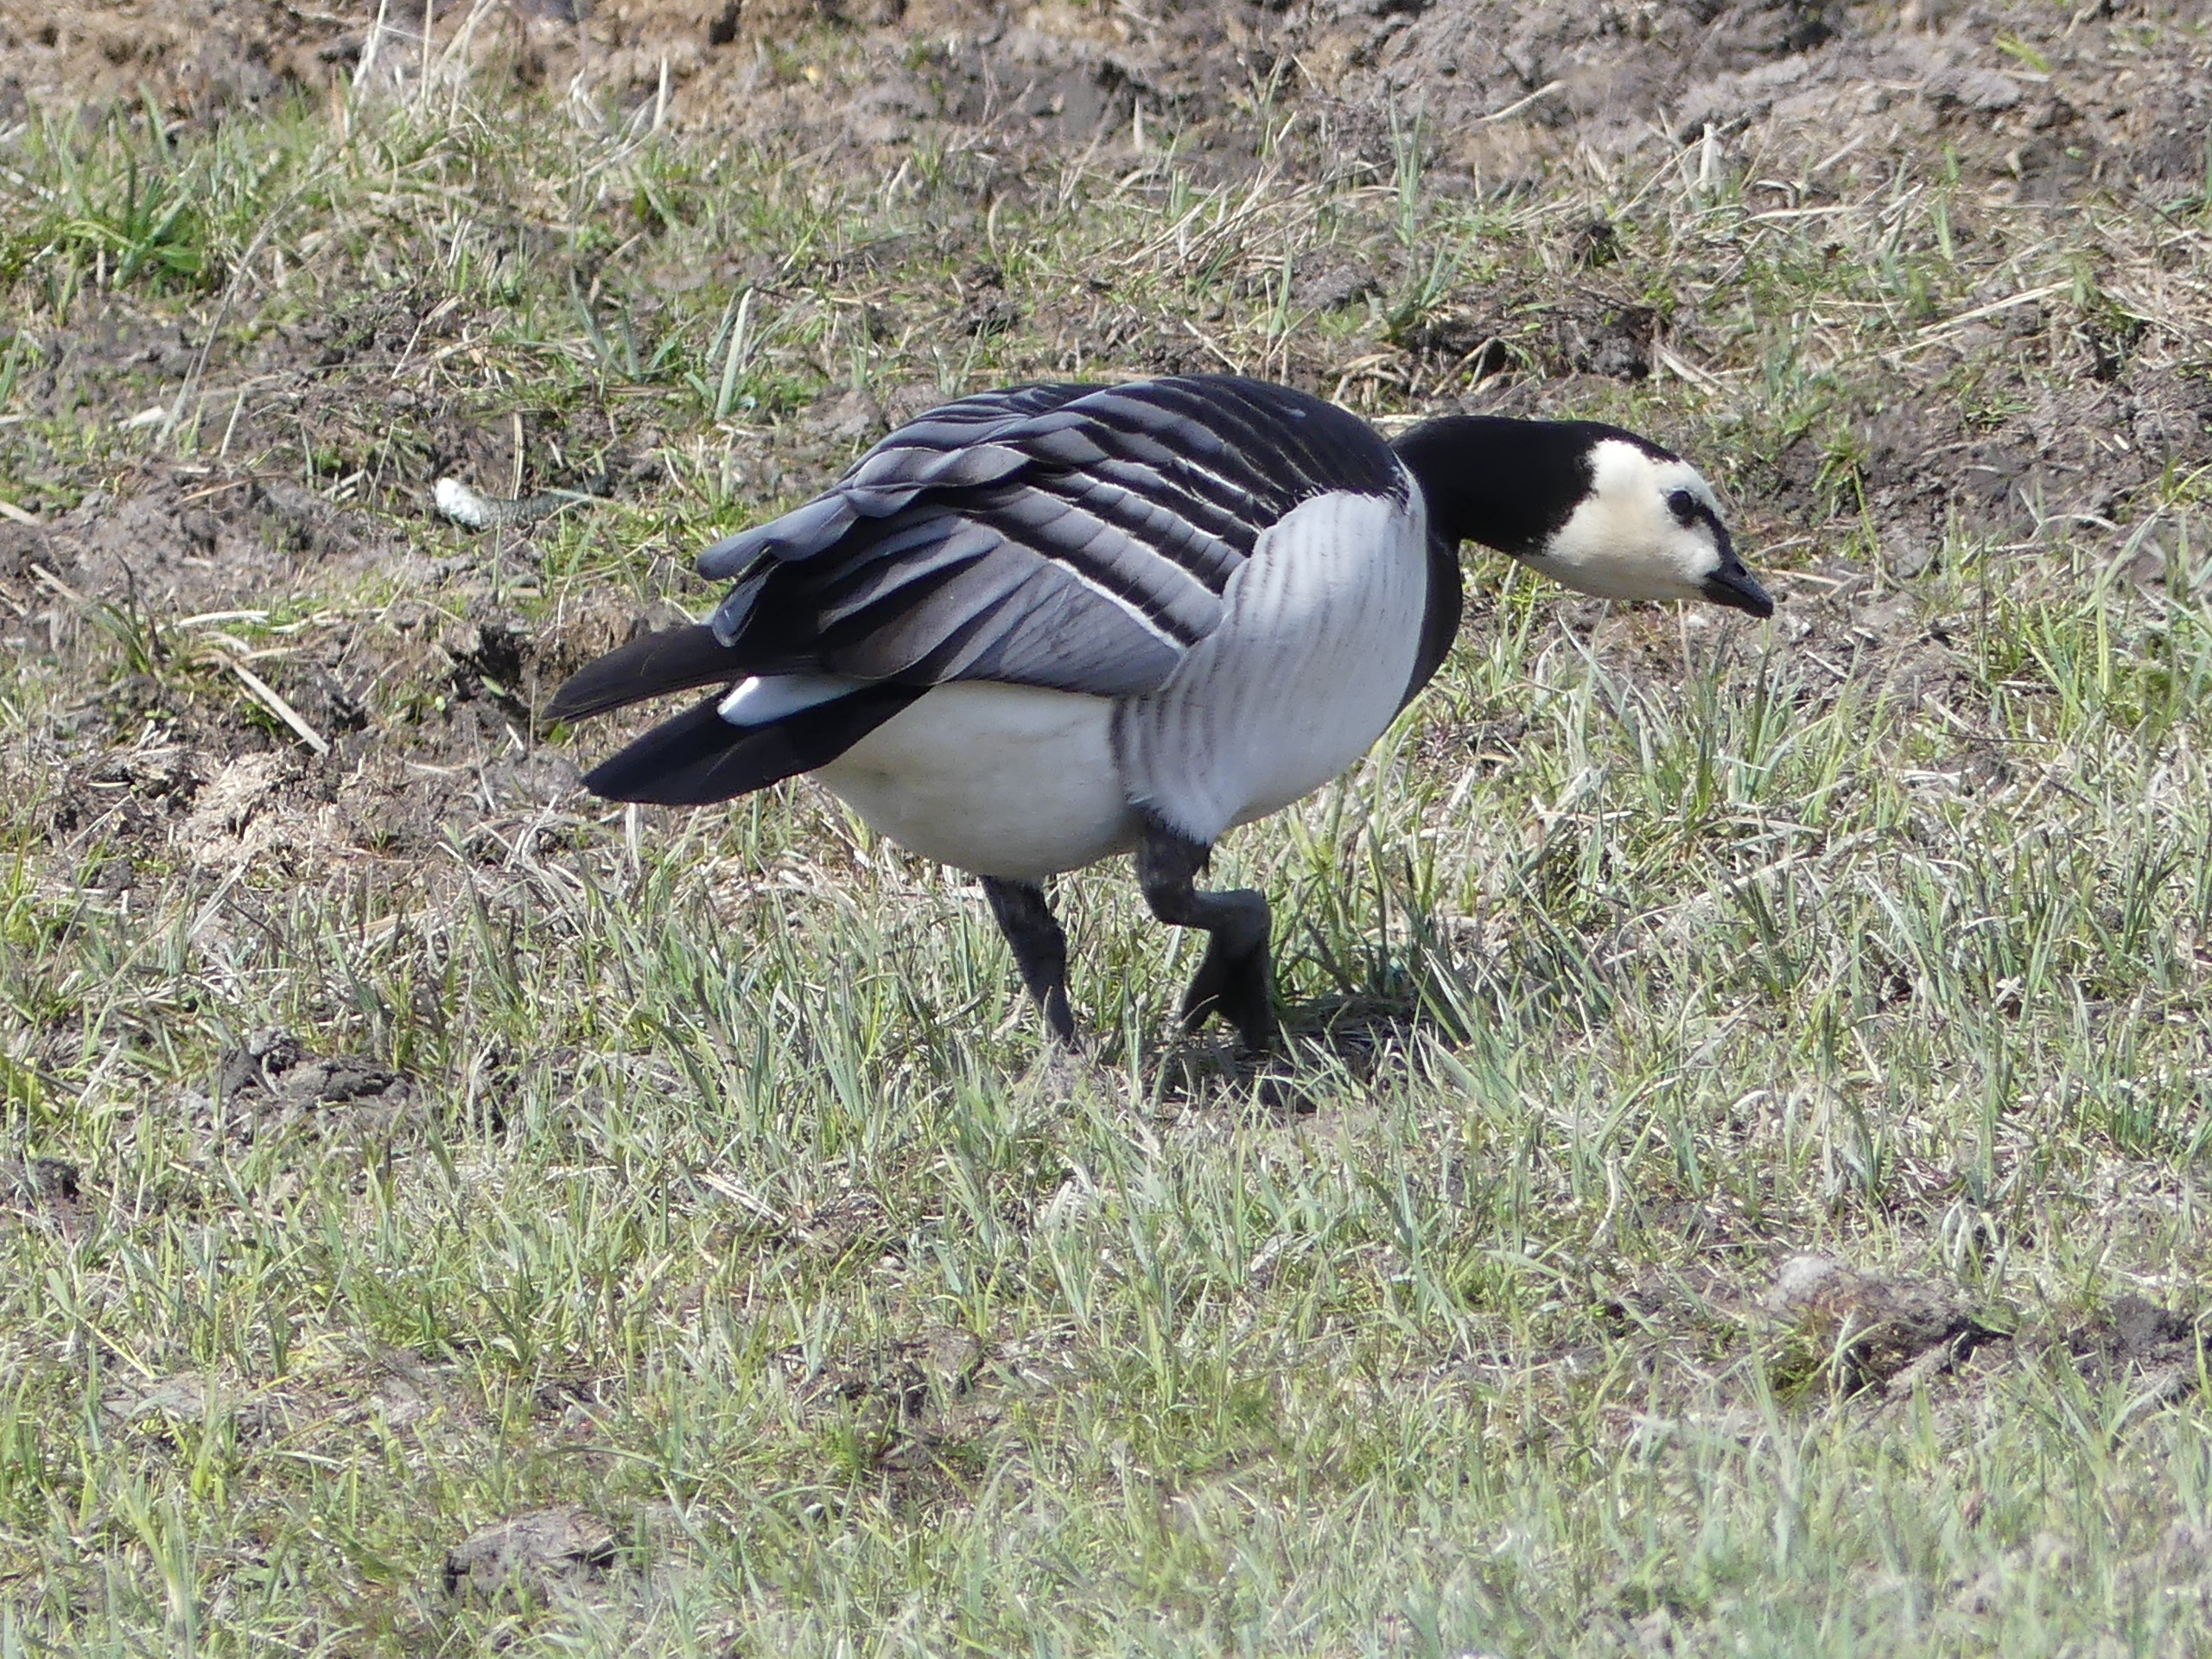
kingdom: Animalia
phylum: Chordata
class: Aves
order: Anseriformes
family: Anatidae
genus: Branta
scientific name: Branta leucopsis
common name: Bramgås
